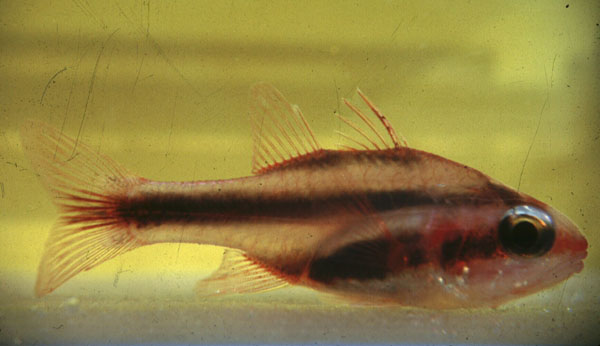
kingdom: Animalia
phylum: Chordata
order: Perciformes
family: Apogonidae
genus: Apogon
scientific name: Apogon semiornatus
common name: Threeband cardinalfish
